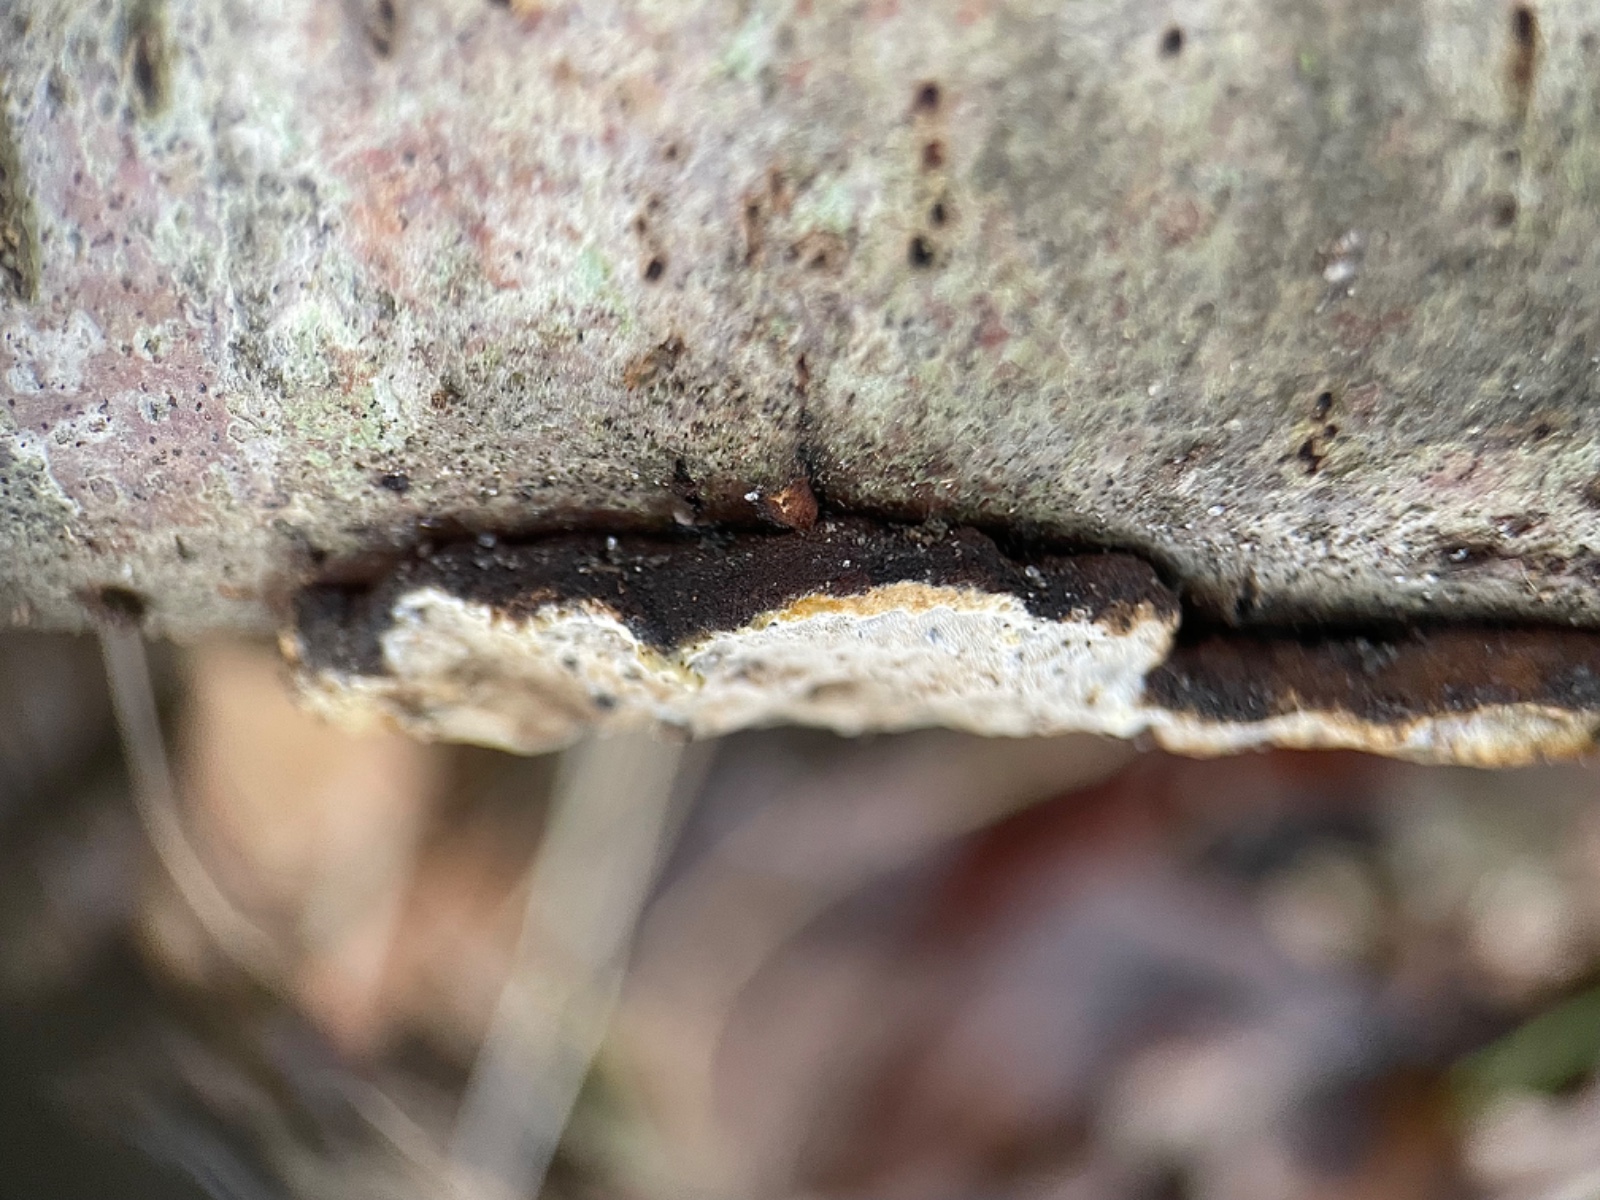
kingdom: Fungi
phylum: Basidiomycota
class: Agaricomycetes
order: Polyporales
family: Incrustoporiaceae
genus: Skeletocutis
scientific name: Skeletocutis nemoralis
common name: stor krystalporesvamp
